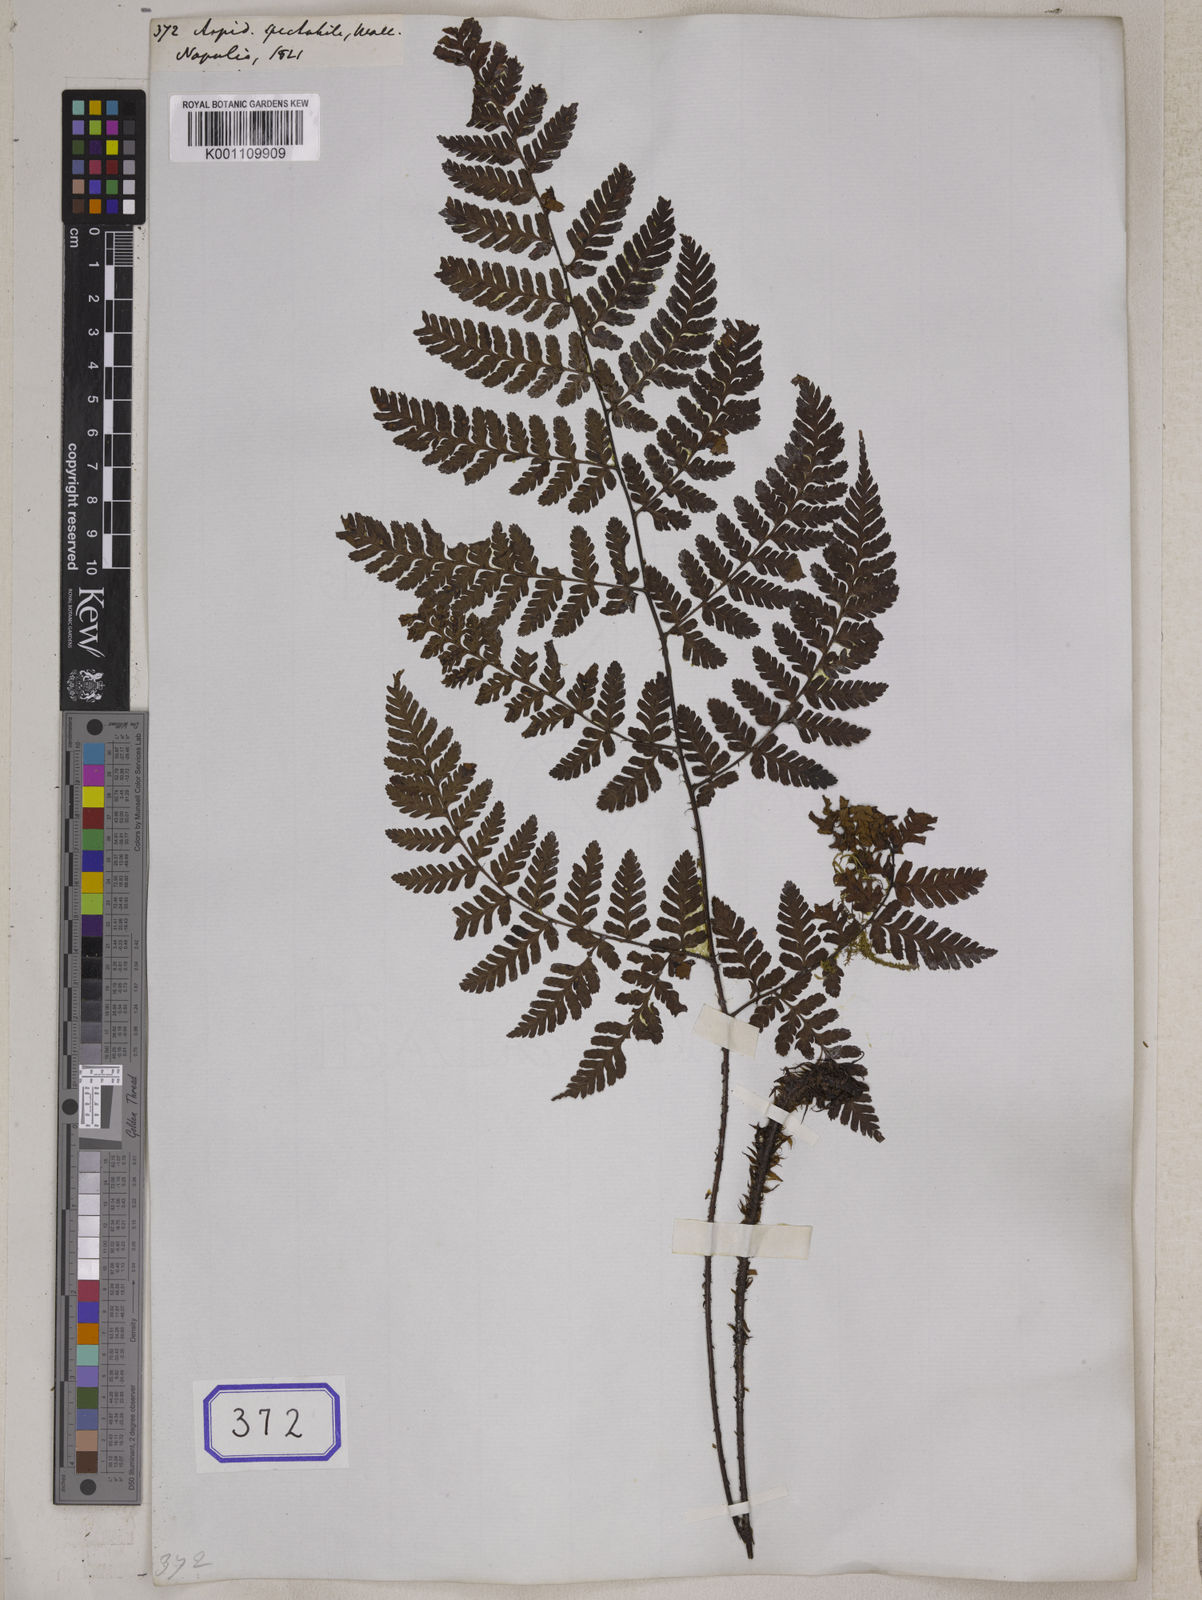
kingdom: Plantae
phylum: Tracheophyta
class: Polypodiopsida
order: Polypodiales
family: Dryopteridaceae
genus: Dryopteris
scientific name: Dryopteris hendersonii
